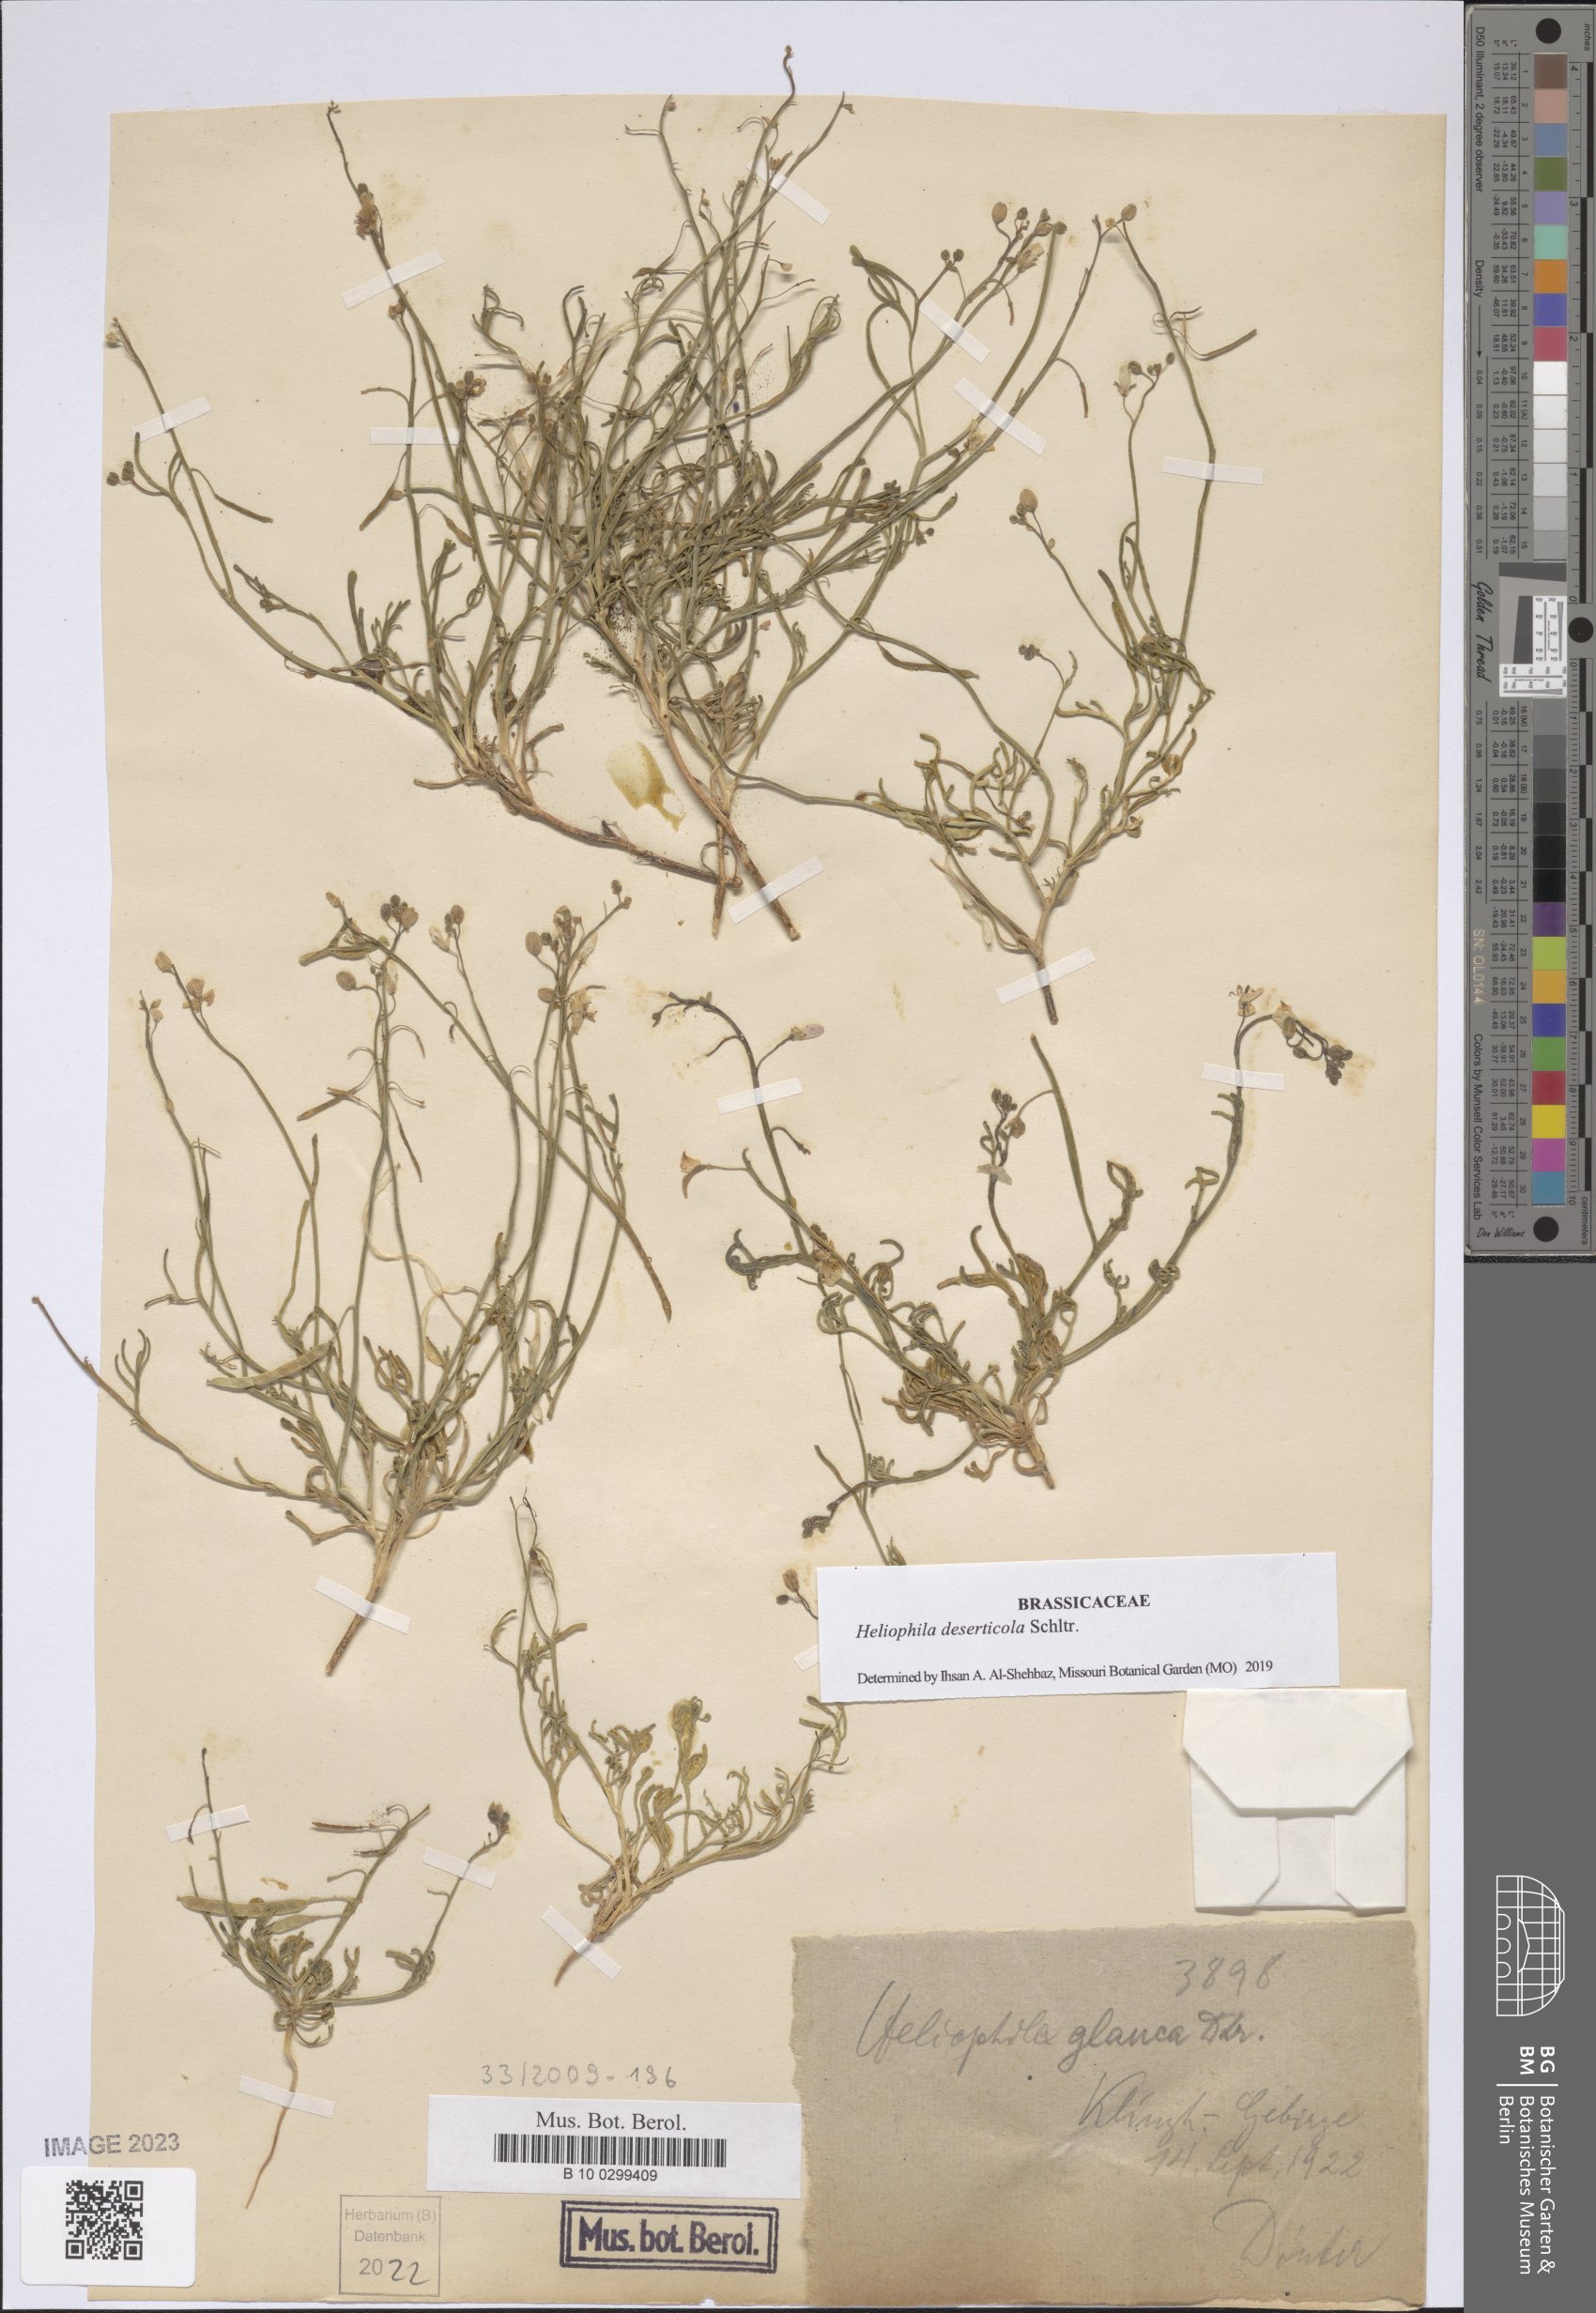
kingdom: Plantae
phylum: Tracheophyta
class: Magnoliopsida
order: Brassicales
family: Brassicaceae
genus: Heliophila
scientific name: Heliophila deserticola
